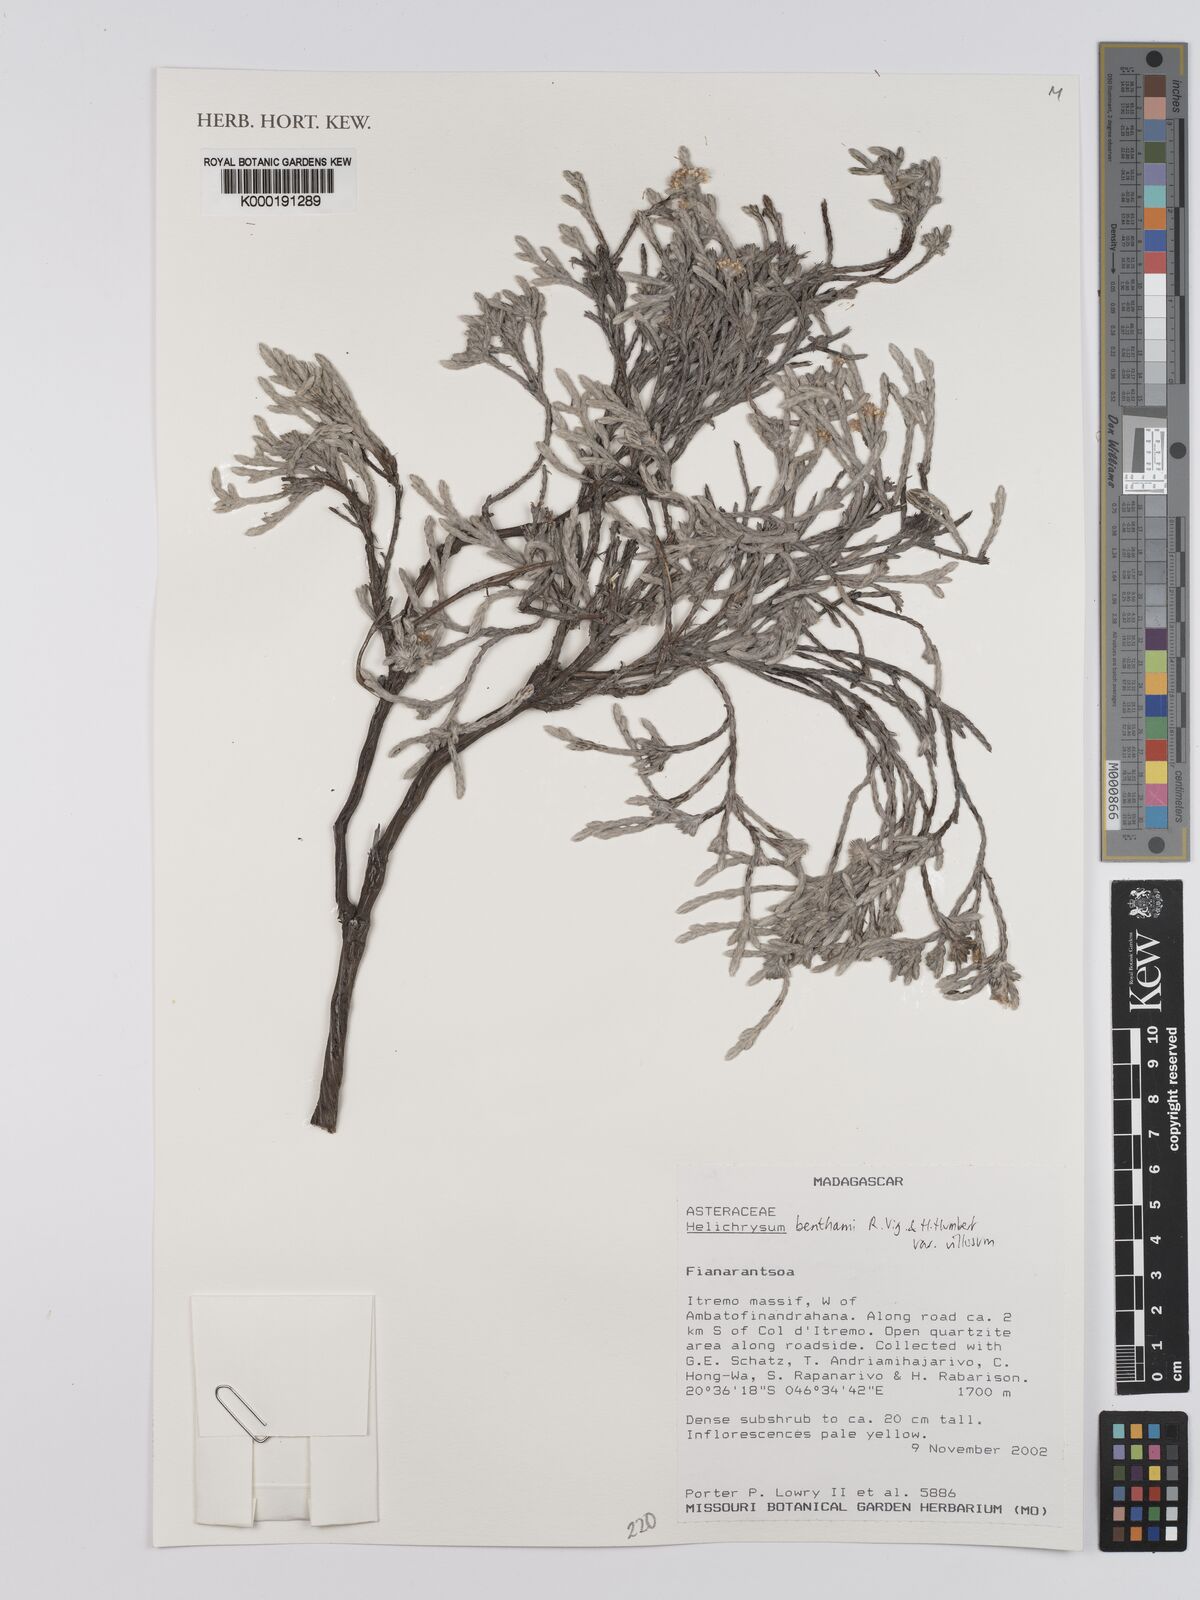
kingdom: Plantae
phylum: Tracheophyta
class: Magnoliopsida
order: Asterales
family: Asteraceae
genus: Helichrysum
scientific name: Helichrysum benthamii
